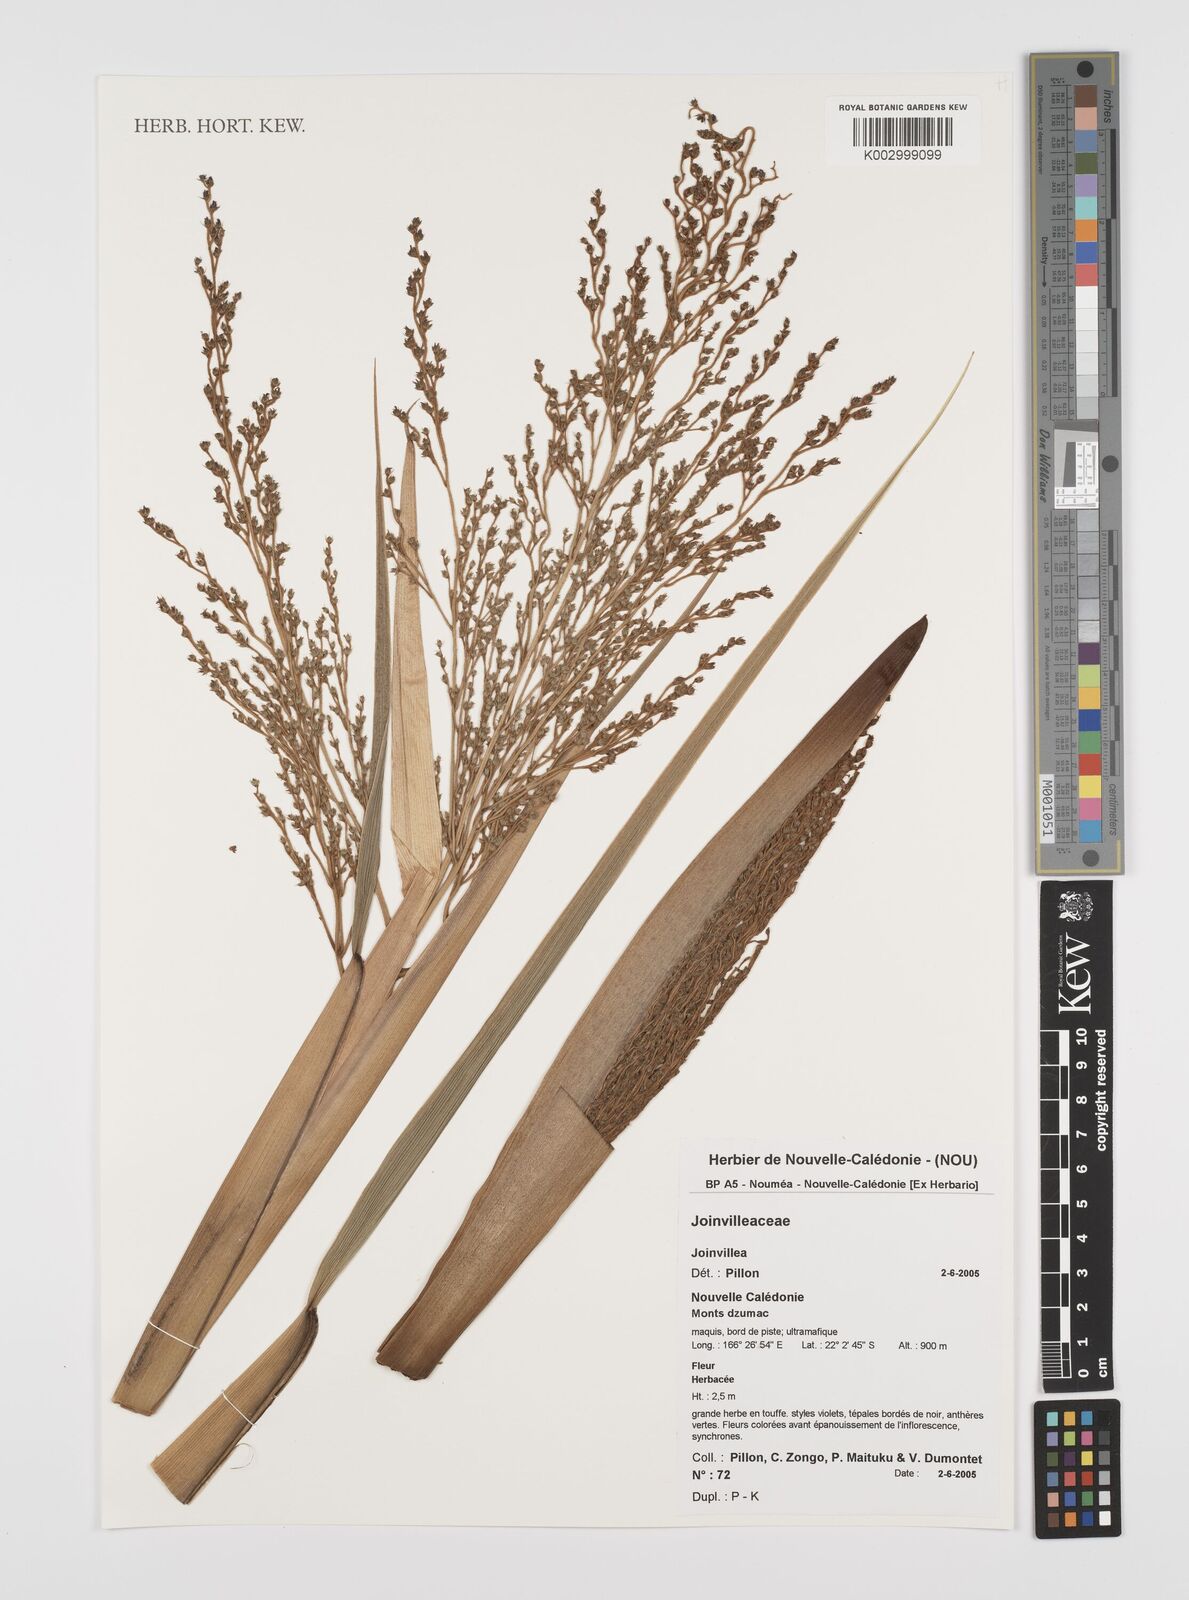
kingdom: Plantae
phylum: Tracheophyta
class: Liliopsida
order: Poales
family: Joinvilleaceae
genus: Joinvillea
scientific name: Joinvillea
